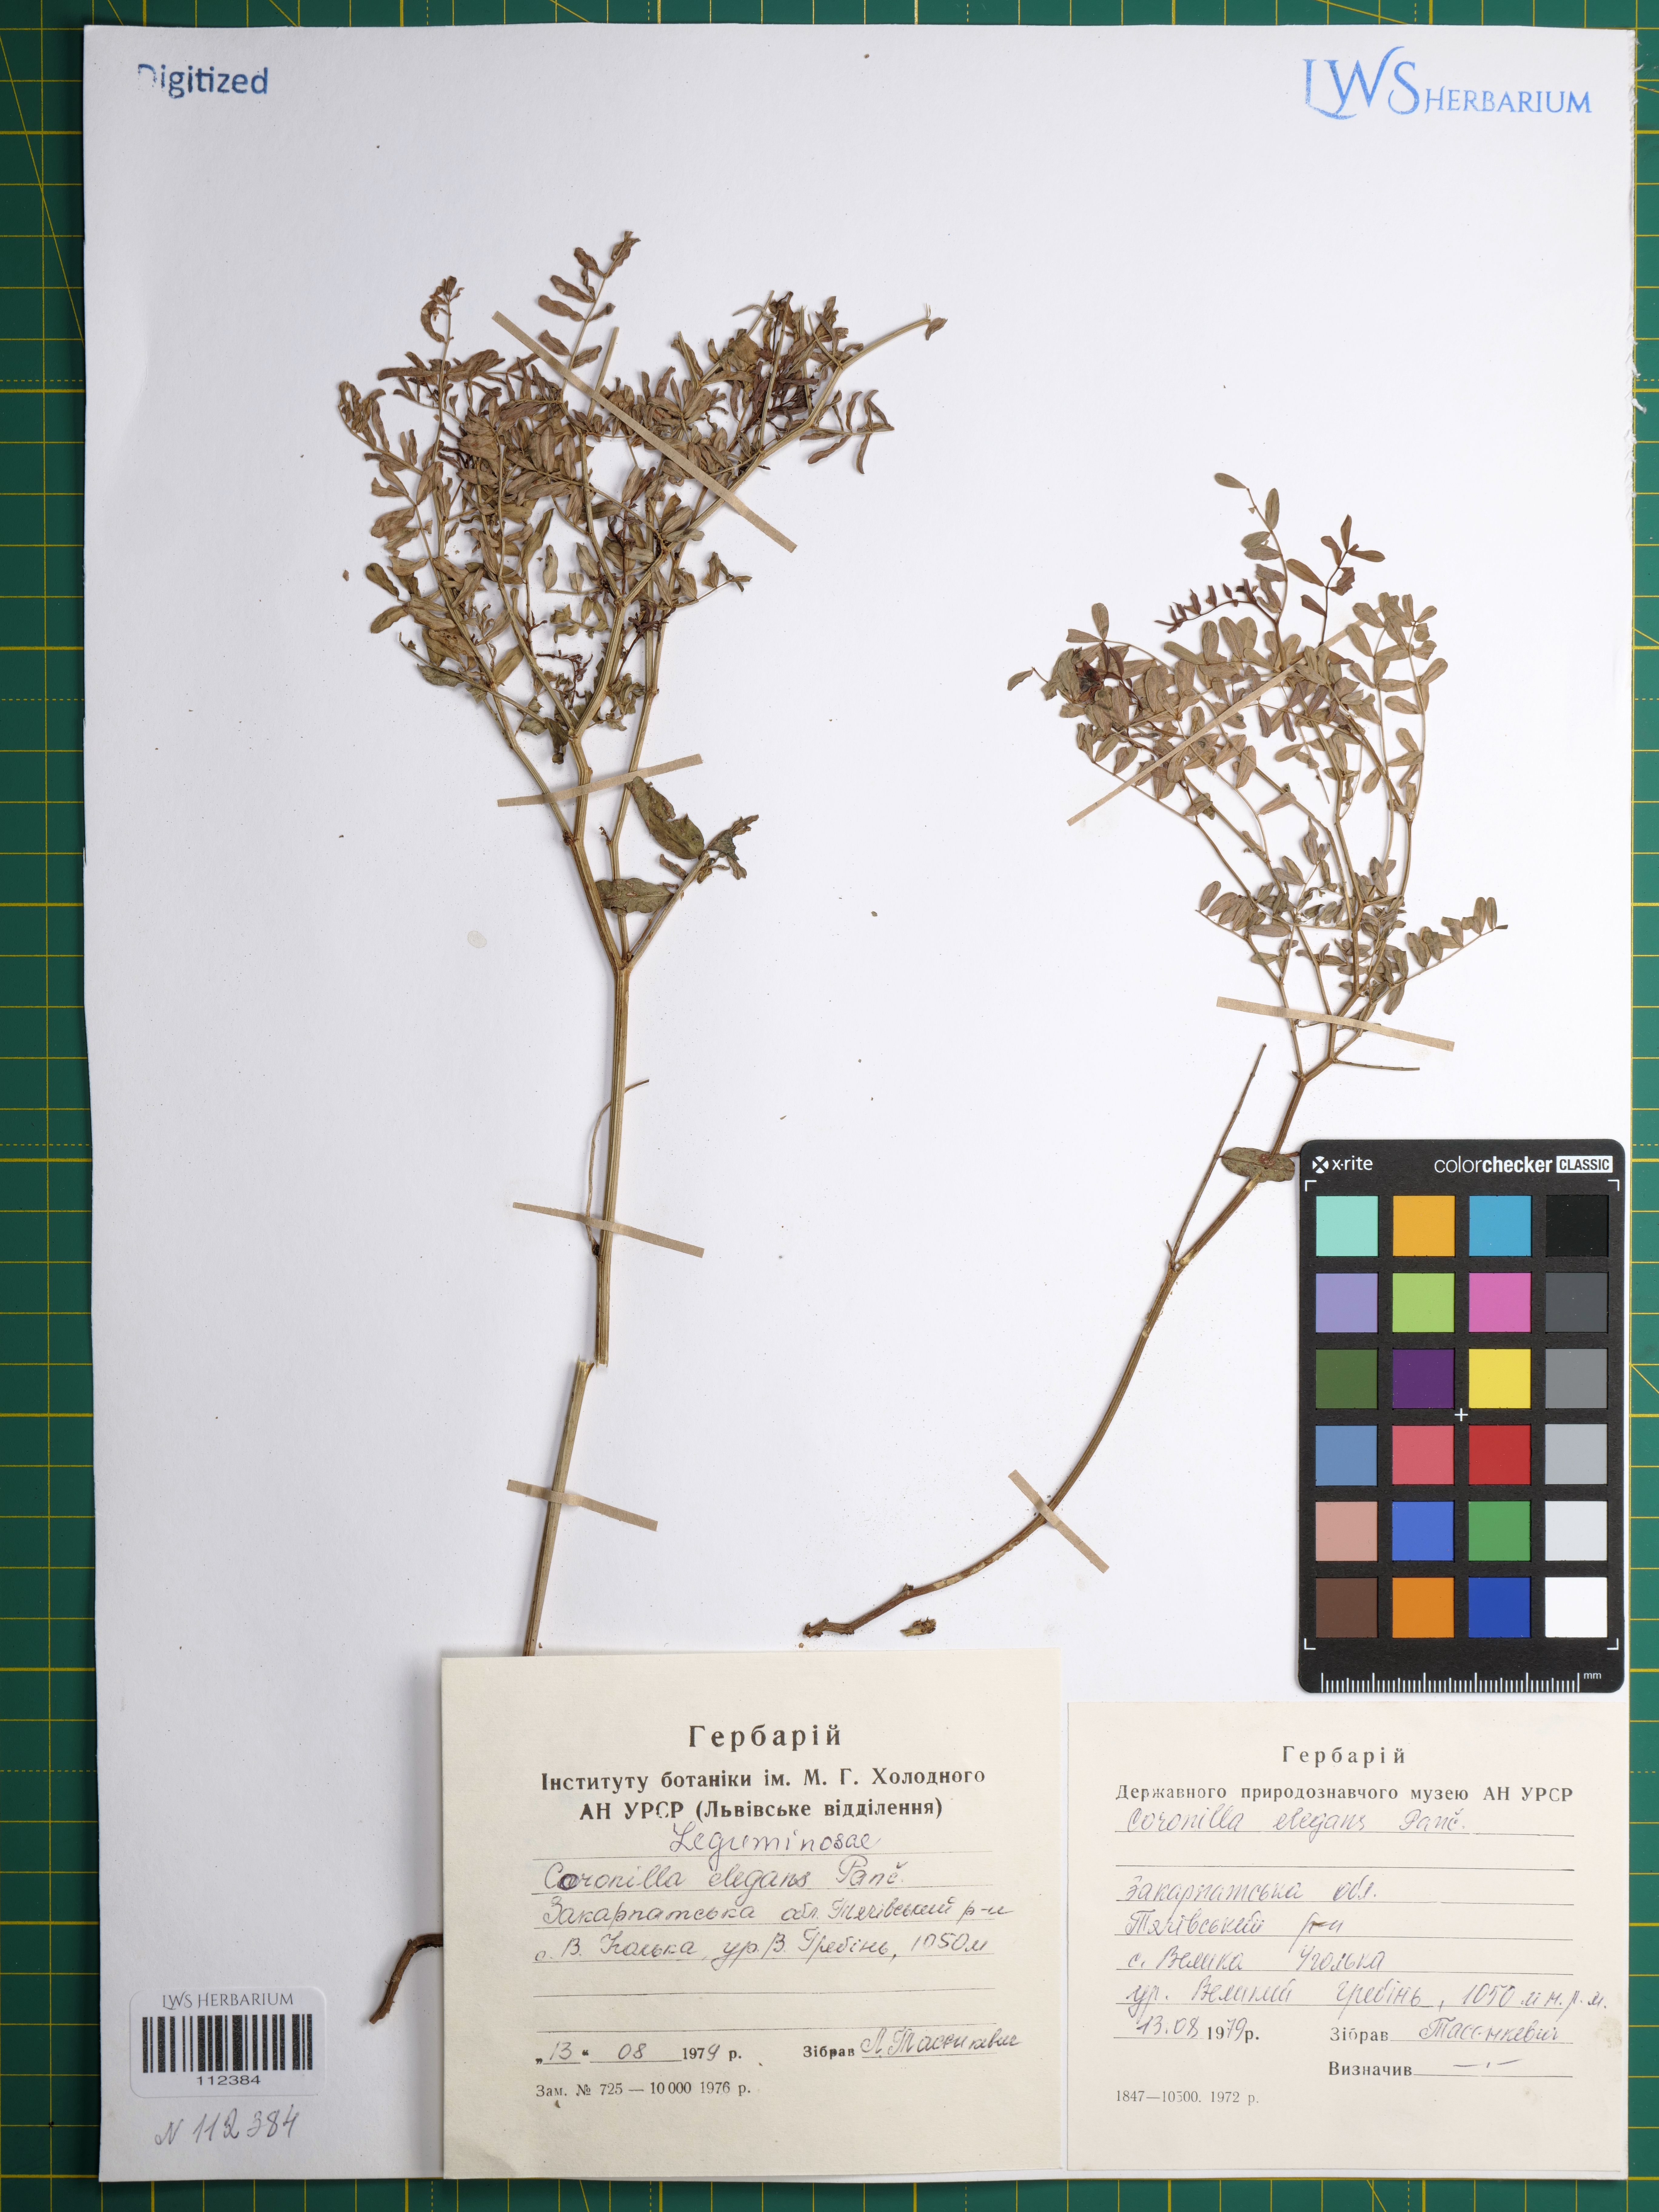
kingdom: Plantae
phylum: Tracheophyta
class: Magnoliopsida
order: Fabales
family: Fabaceae
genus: Coronilla
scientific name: Coronilla elegans
